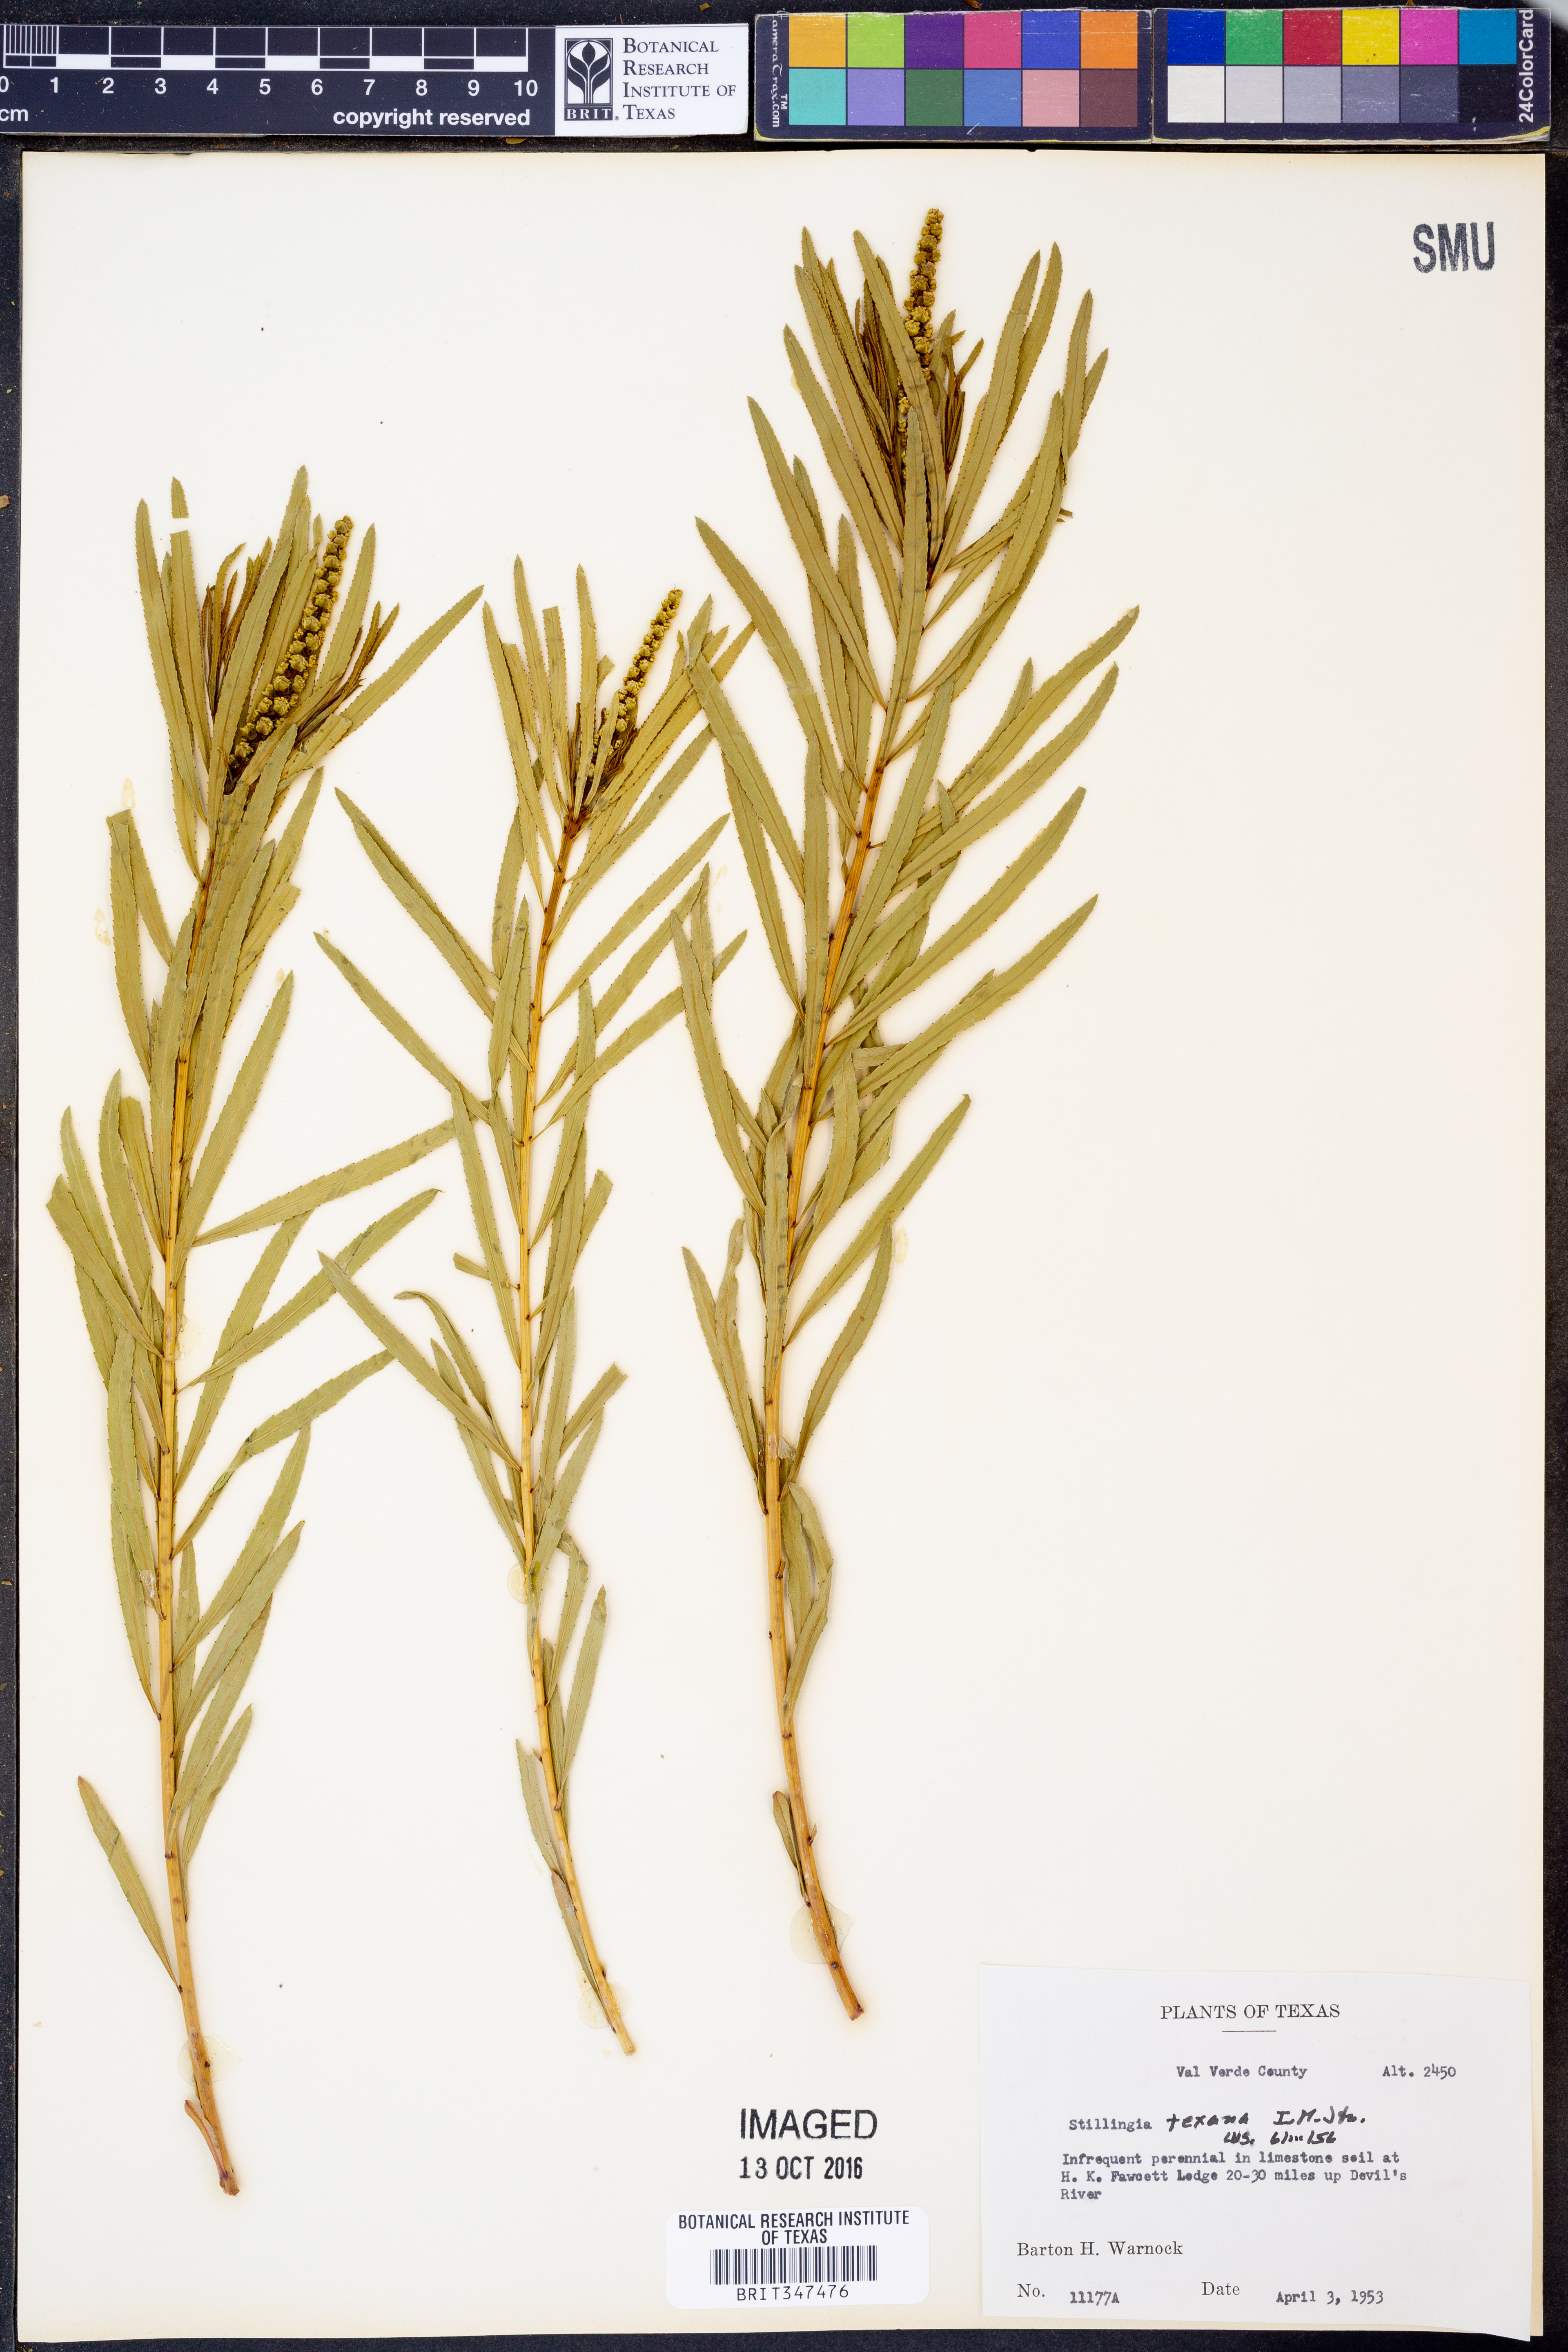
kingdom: Plantae
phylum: Tracheophyta
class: Magnoliopsida
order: Malpighiales
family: Euphorbiaceae
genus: Stillingia
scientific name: Stillingia texana
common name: Texas stillingia
